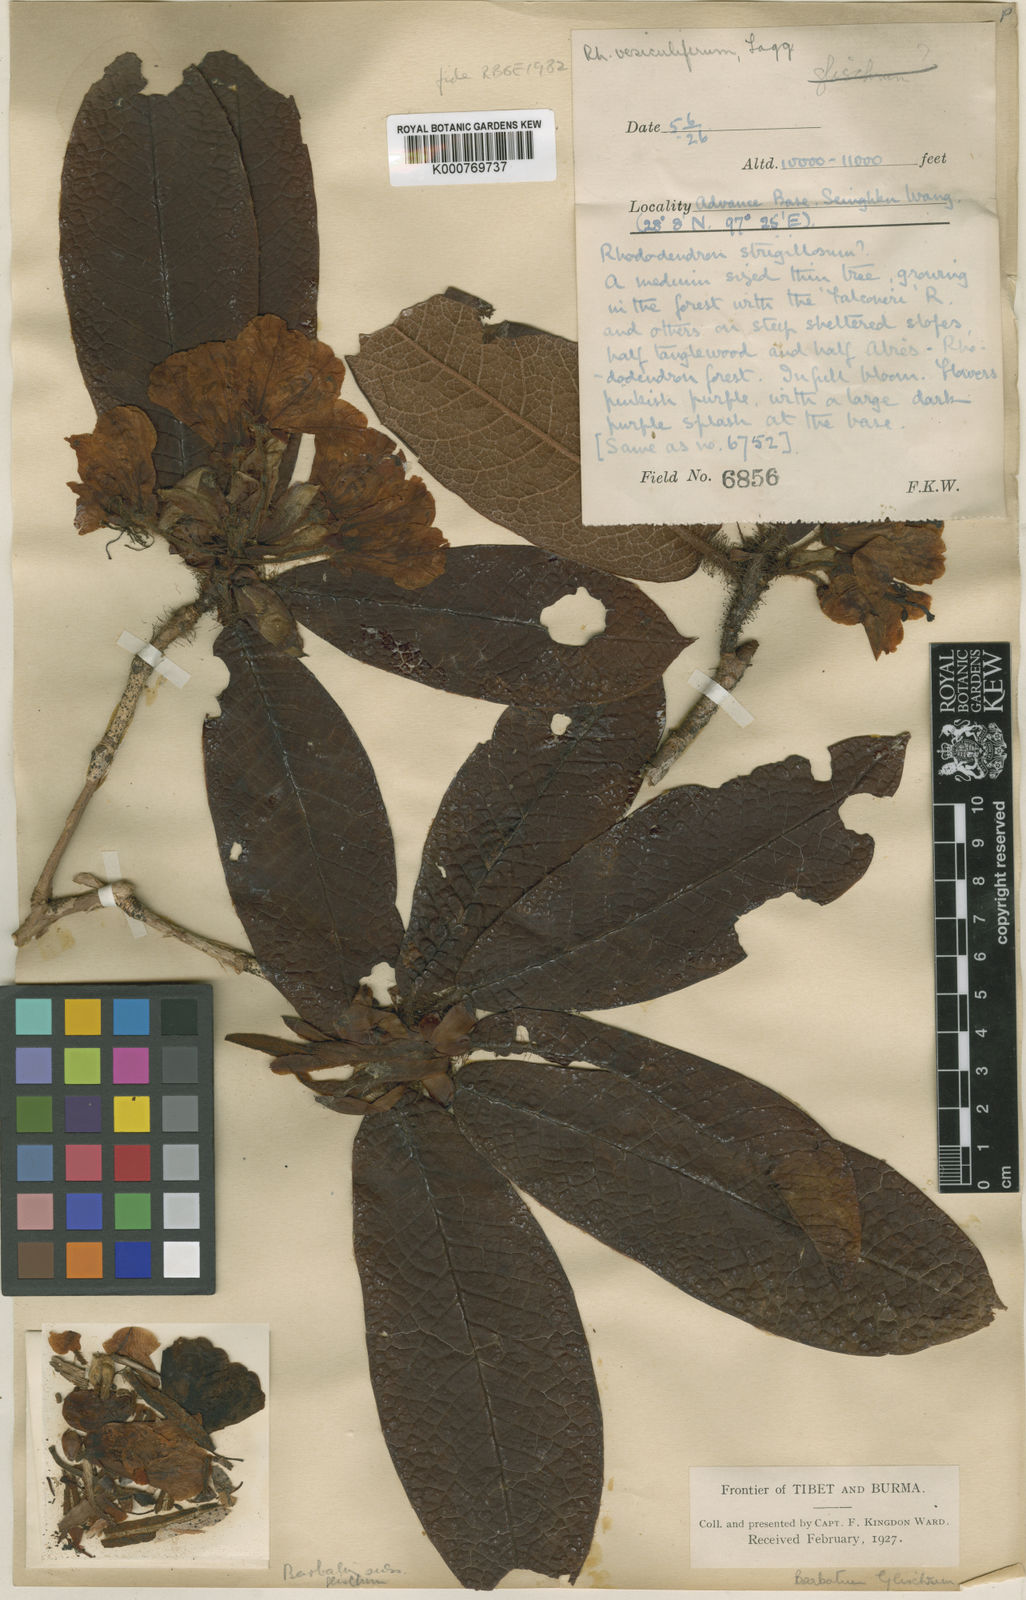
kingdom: Plantae
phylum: Tracheophyta
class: Magnoliopsida
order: Ericales
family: Ericaceae
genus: Rhododendron
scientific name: Rhododendron vesiculiferum
